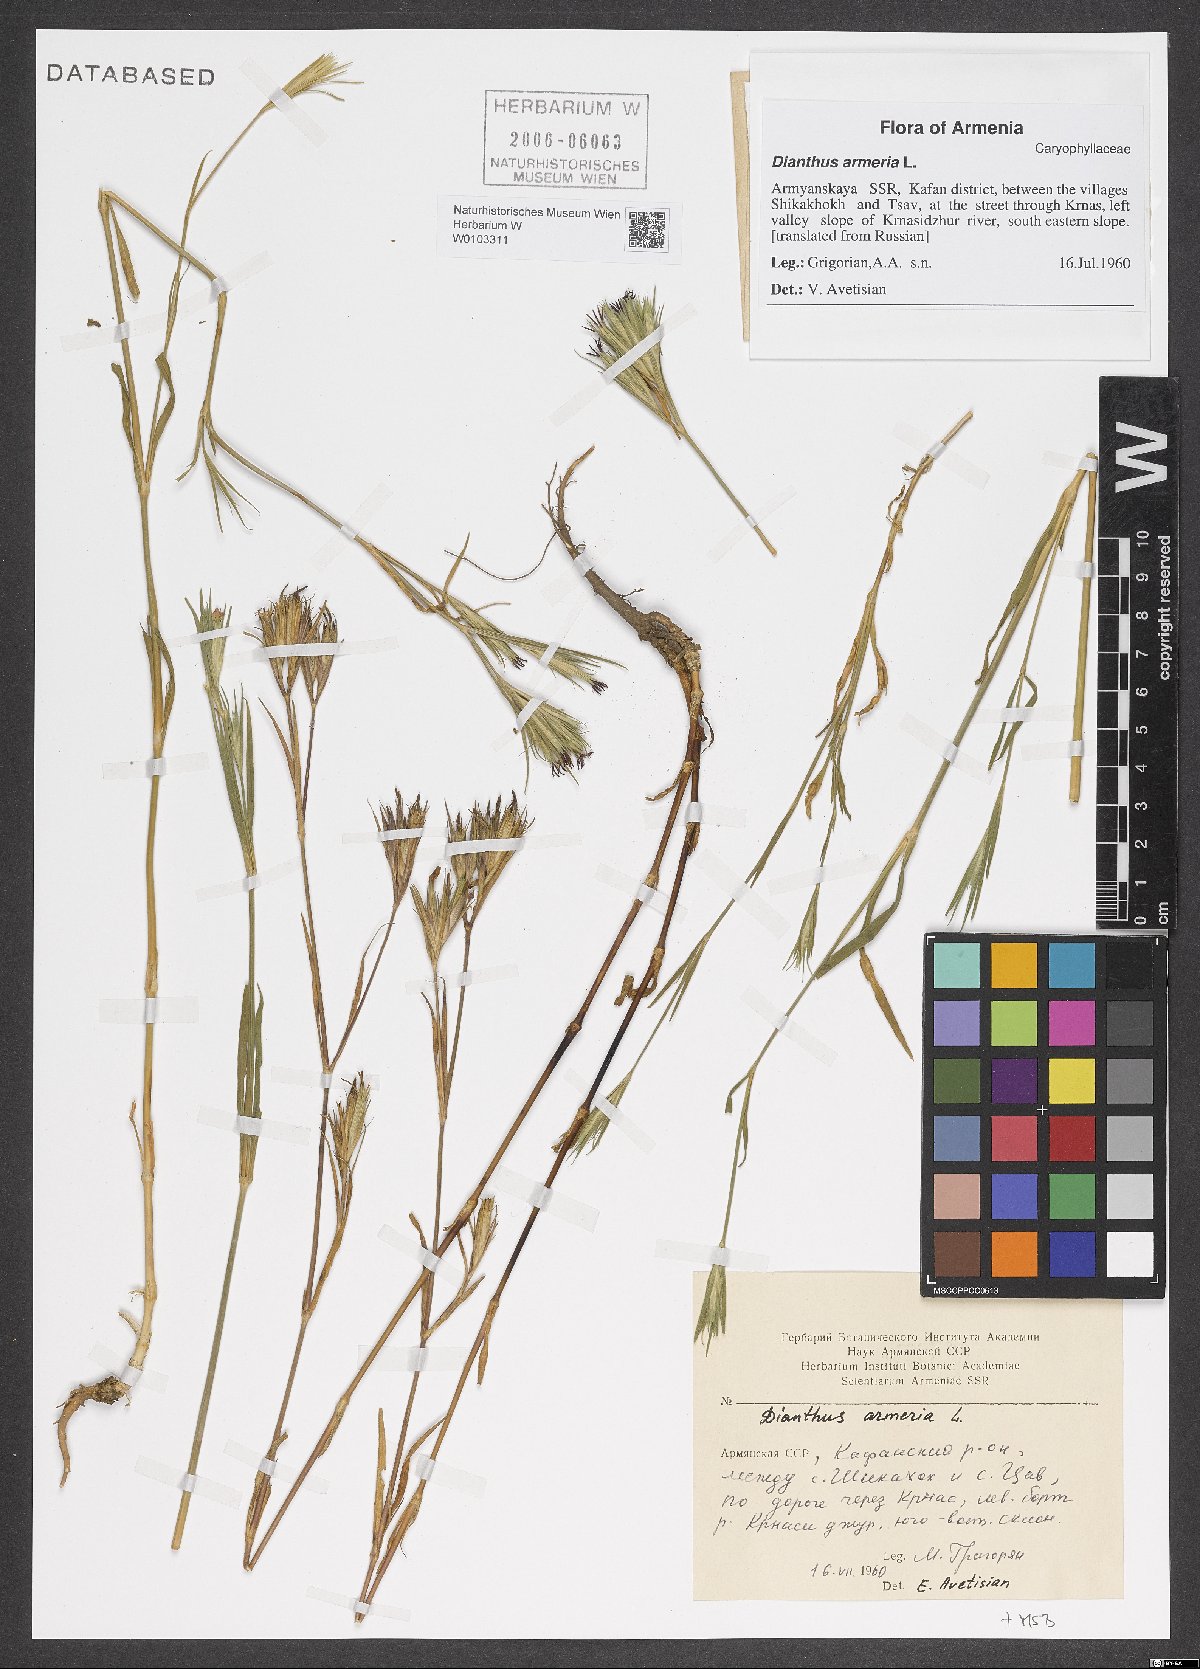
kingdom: Plantae
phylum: Tracheophyta
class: Magnoliopsida
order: Caryophyllales
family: Caryophyllaceae
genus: Dianthus
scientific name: Dianthus armeria
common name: Deptford pink
